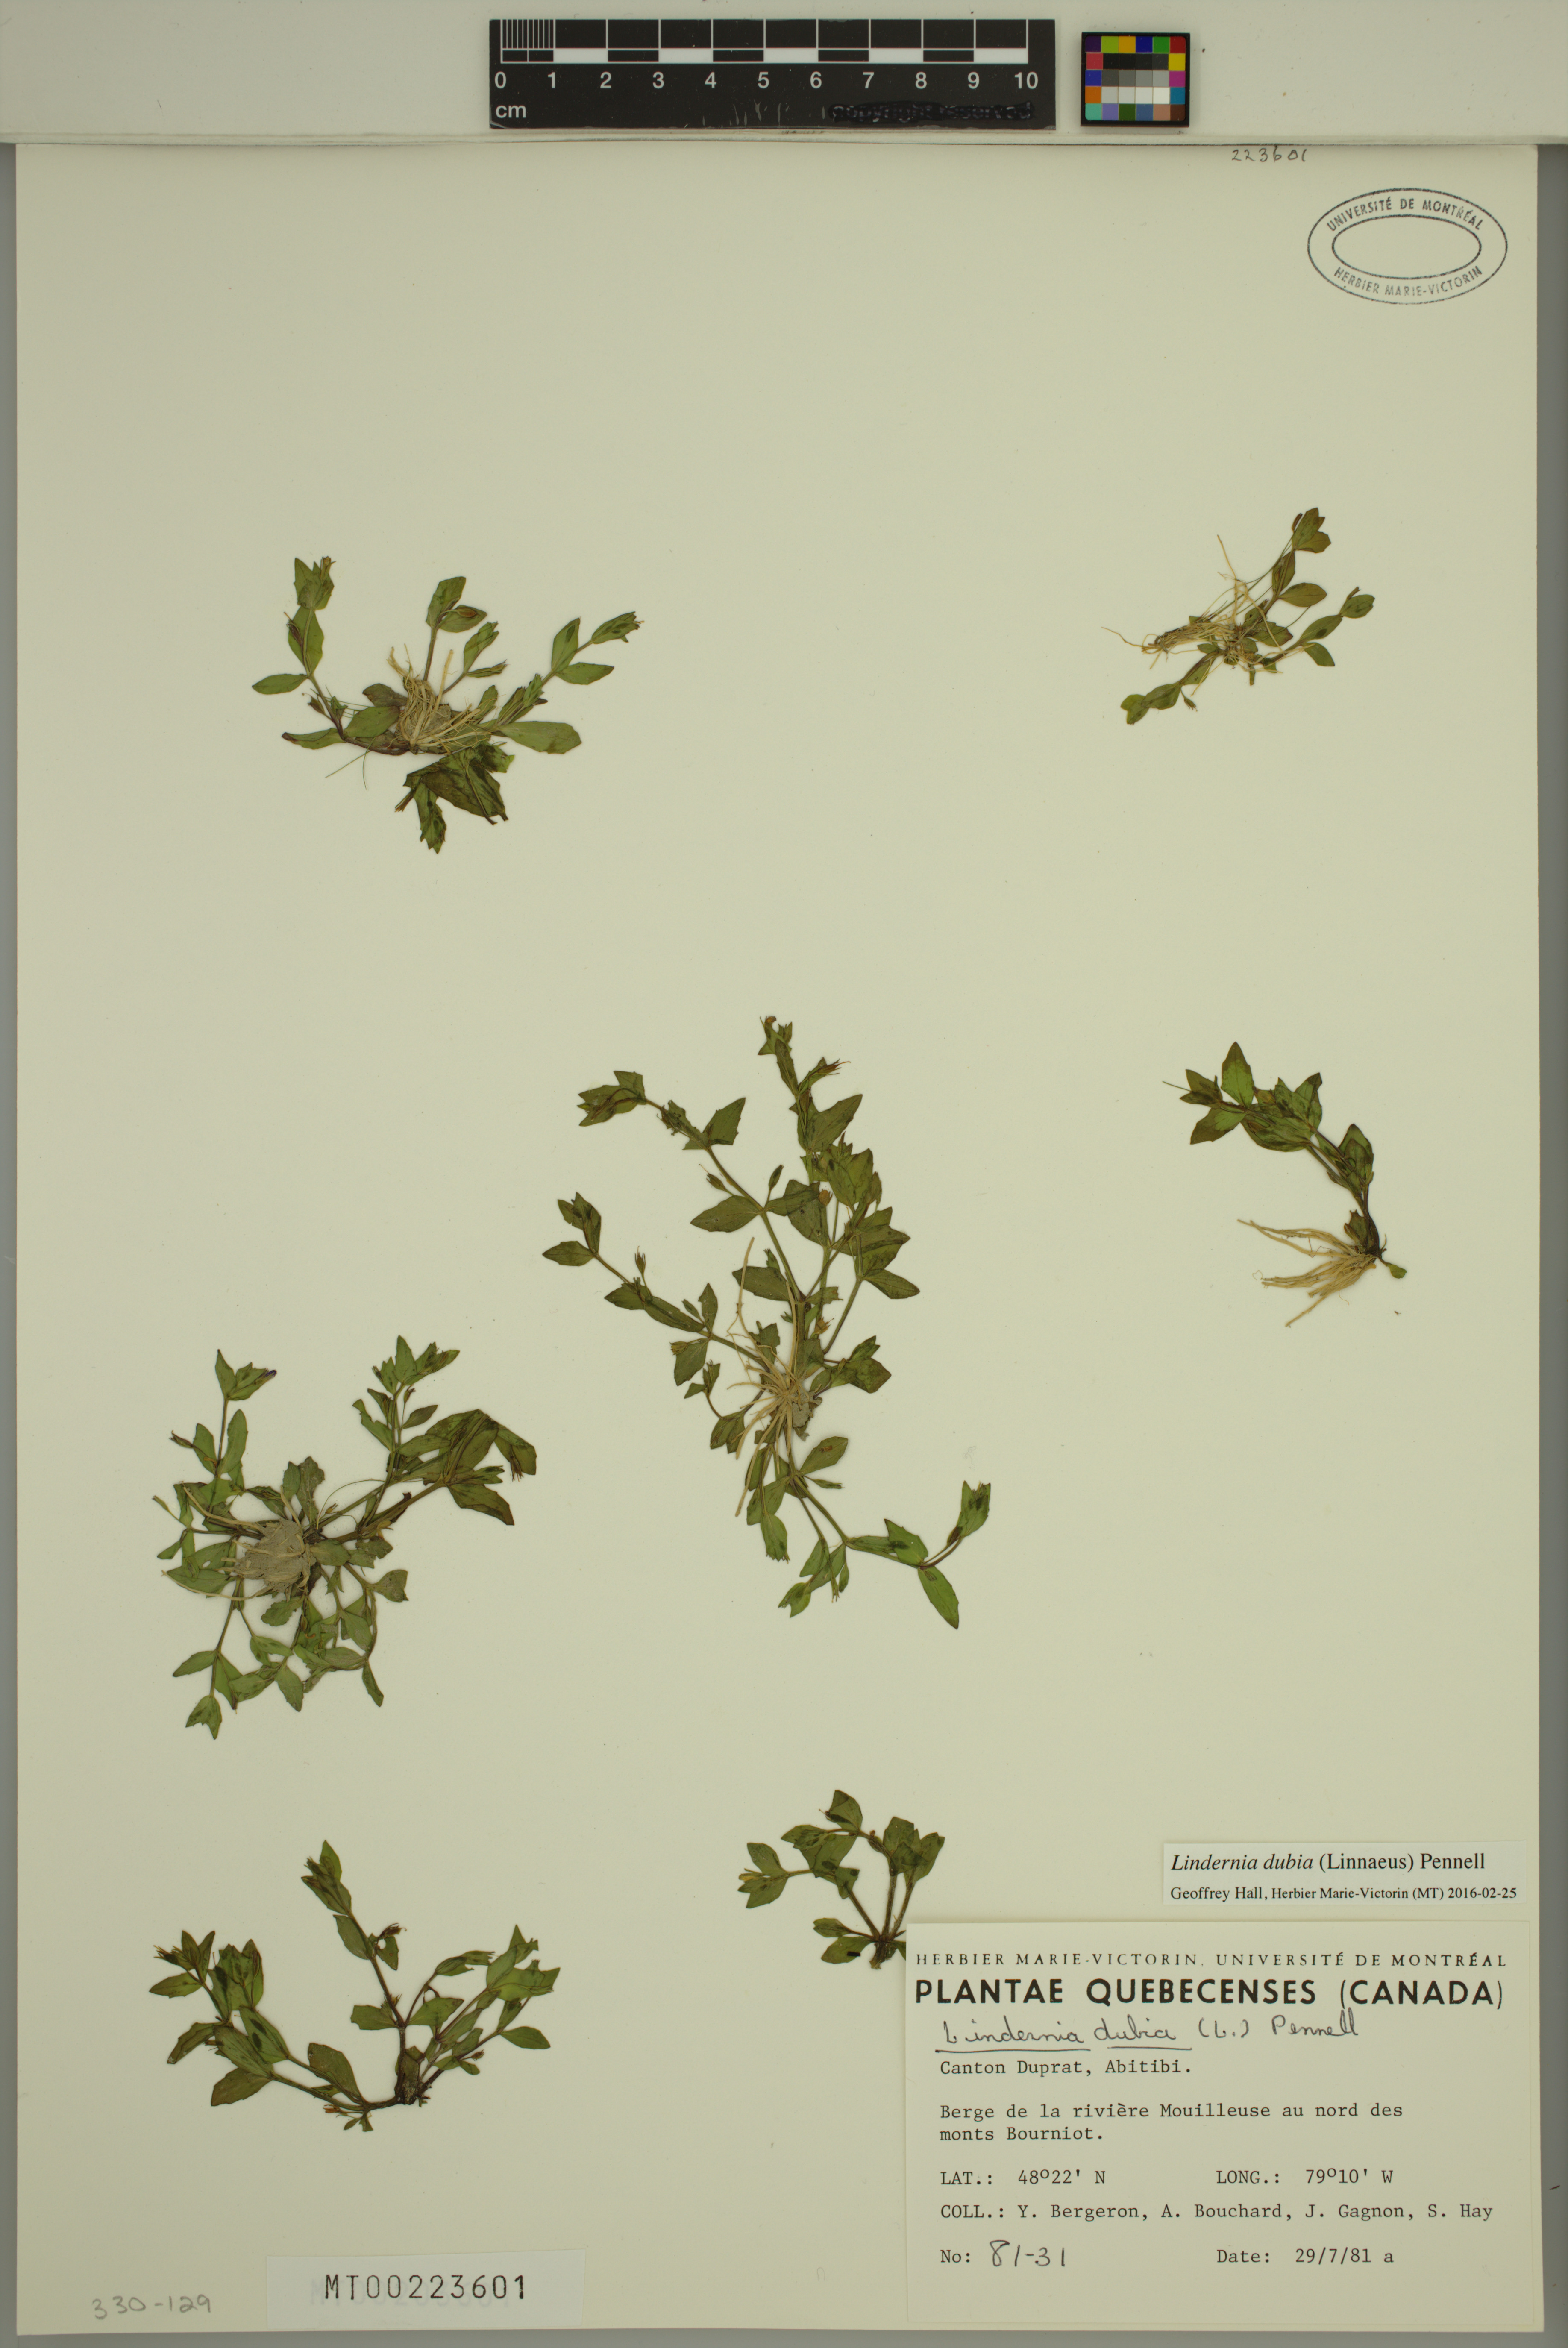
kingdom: Plantae
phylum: Tracheophyta
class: Magnoliopsida
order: Lamiales
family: Linderniaceae
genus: Lindernia
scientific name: Lindernia dubia
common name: Annual false pimpernel
